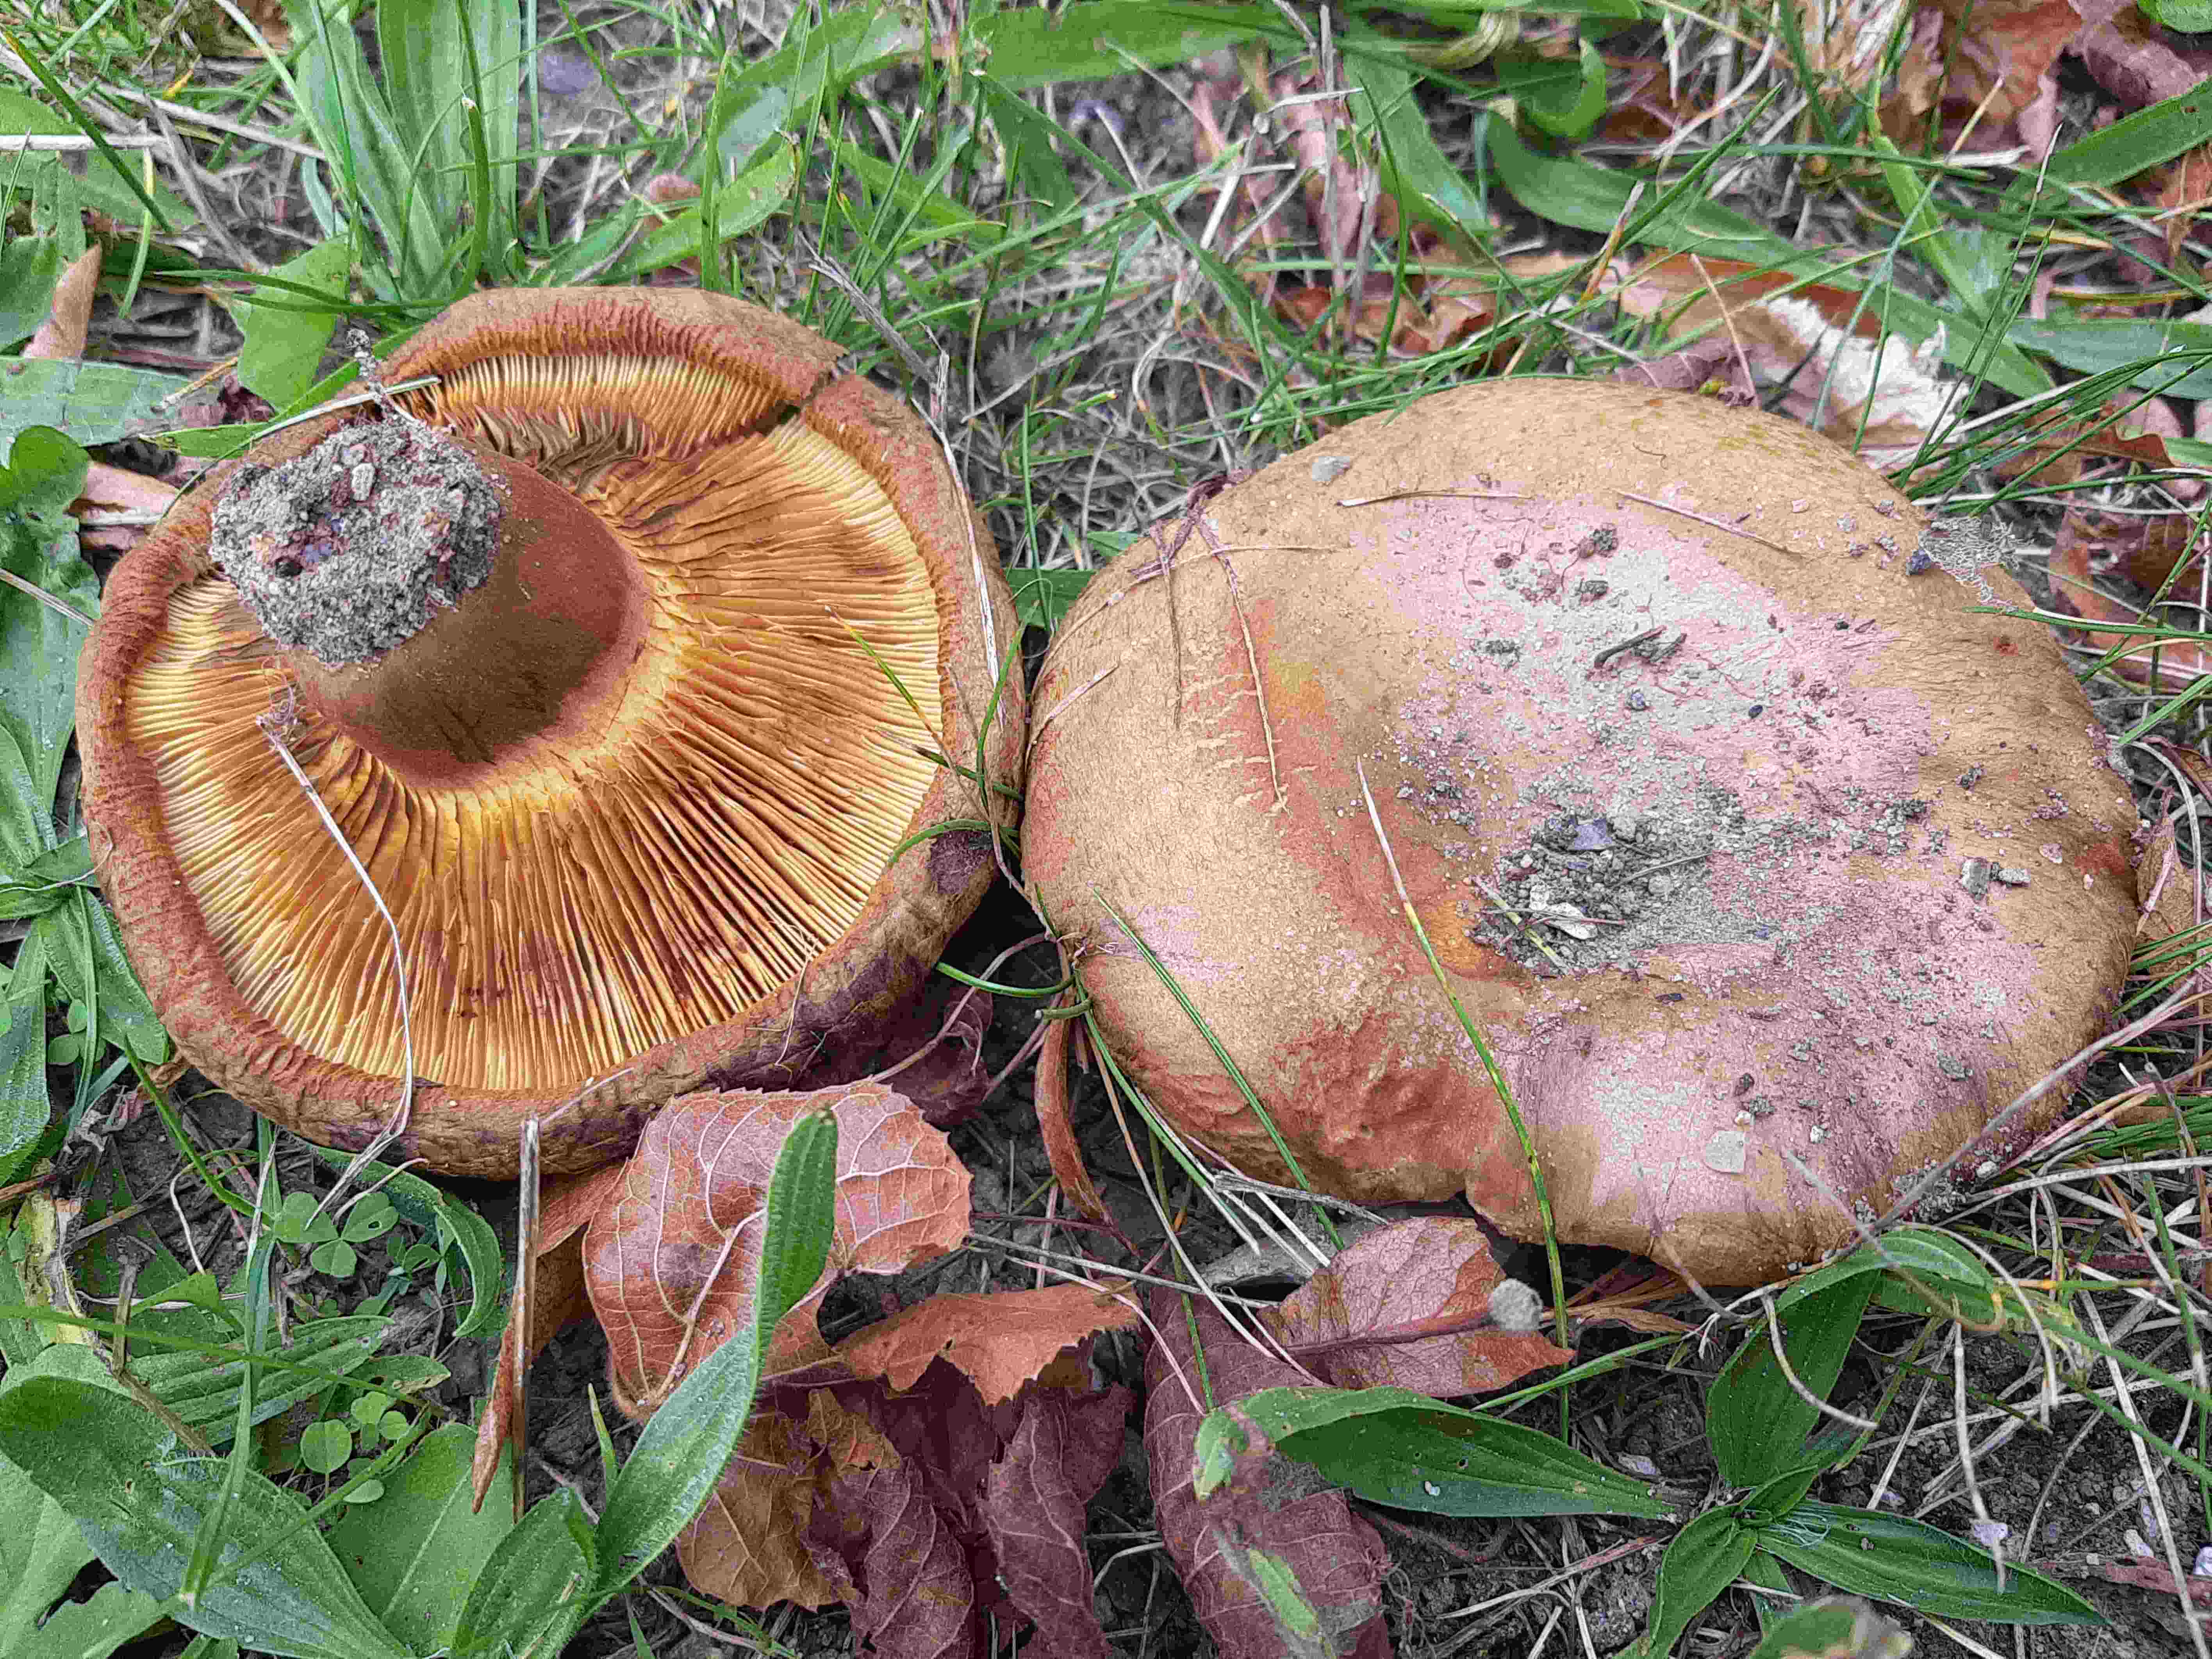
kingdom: Fungi
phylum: Basidiomycota
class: Agaricomycetes
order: Boletales
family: Paxillaceae
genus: Paxillus
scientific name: Paxillus
